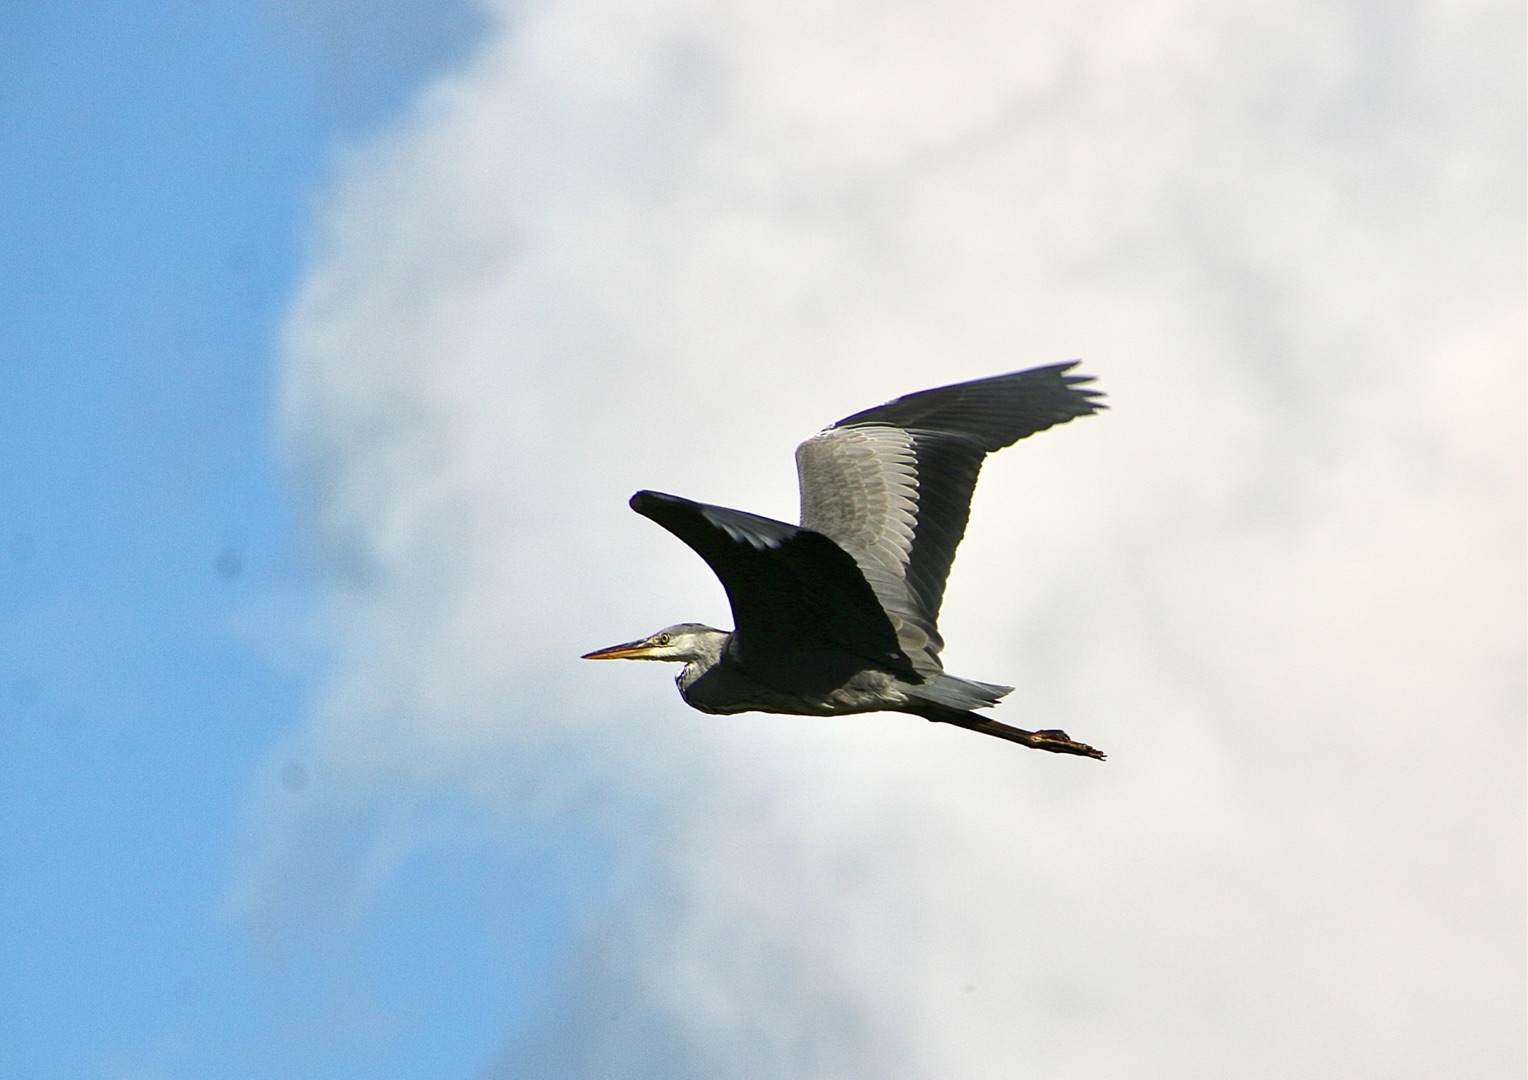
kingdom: Animalia
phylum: Chordata
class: Aves
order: Pelecaniformes
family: Ardeidae
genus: Ardea
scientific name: Ardea cinerea
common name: Fiskehejre
